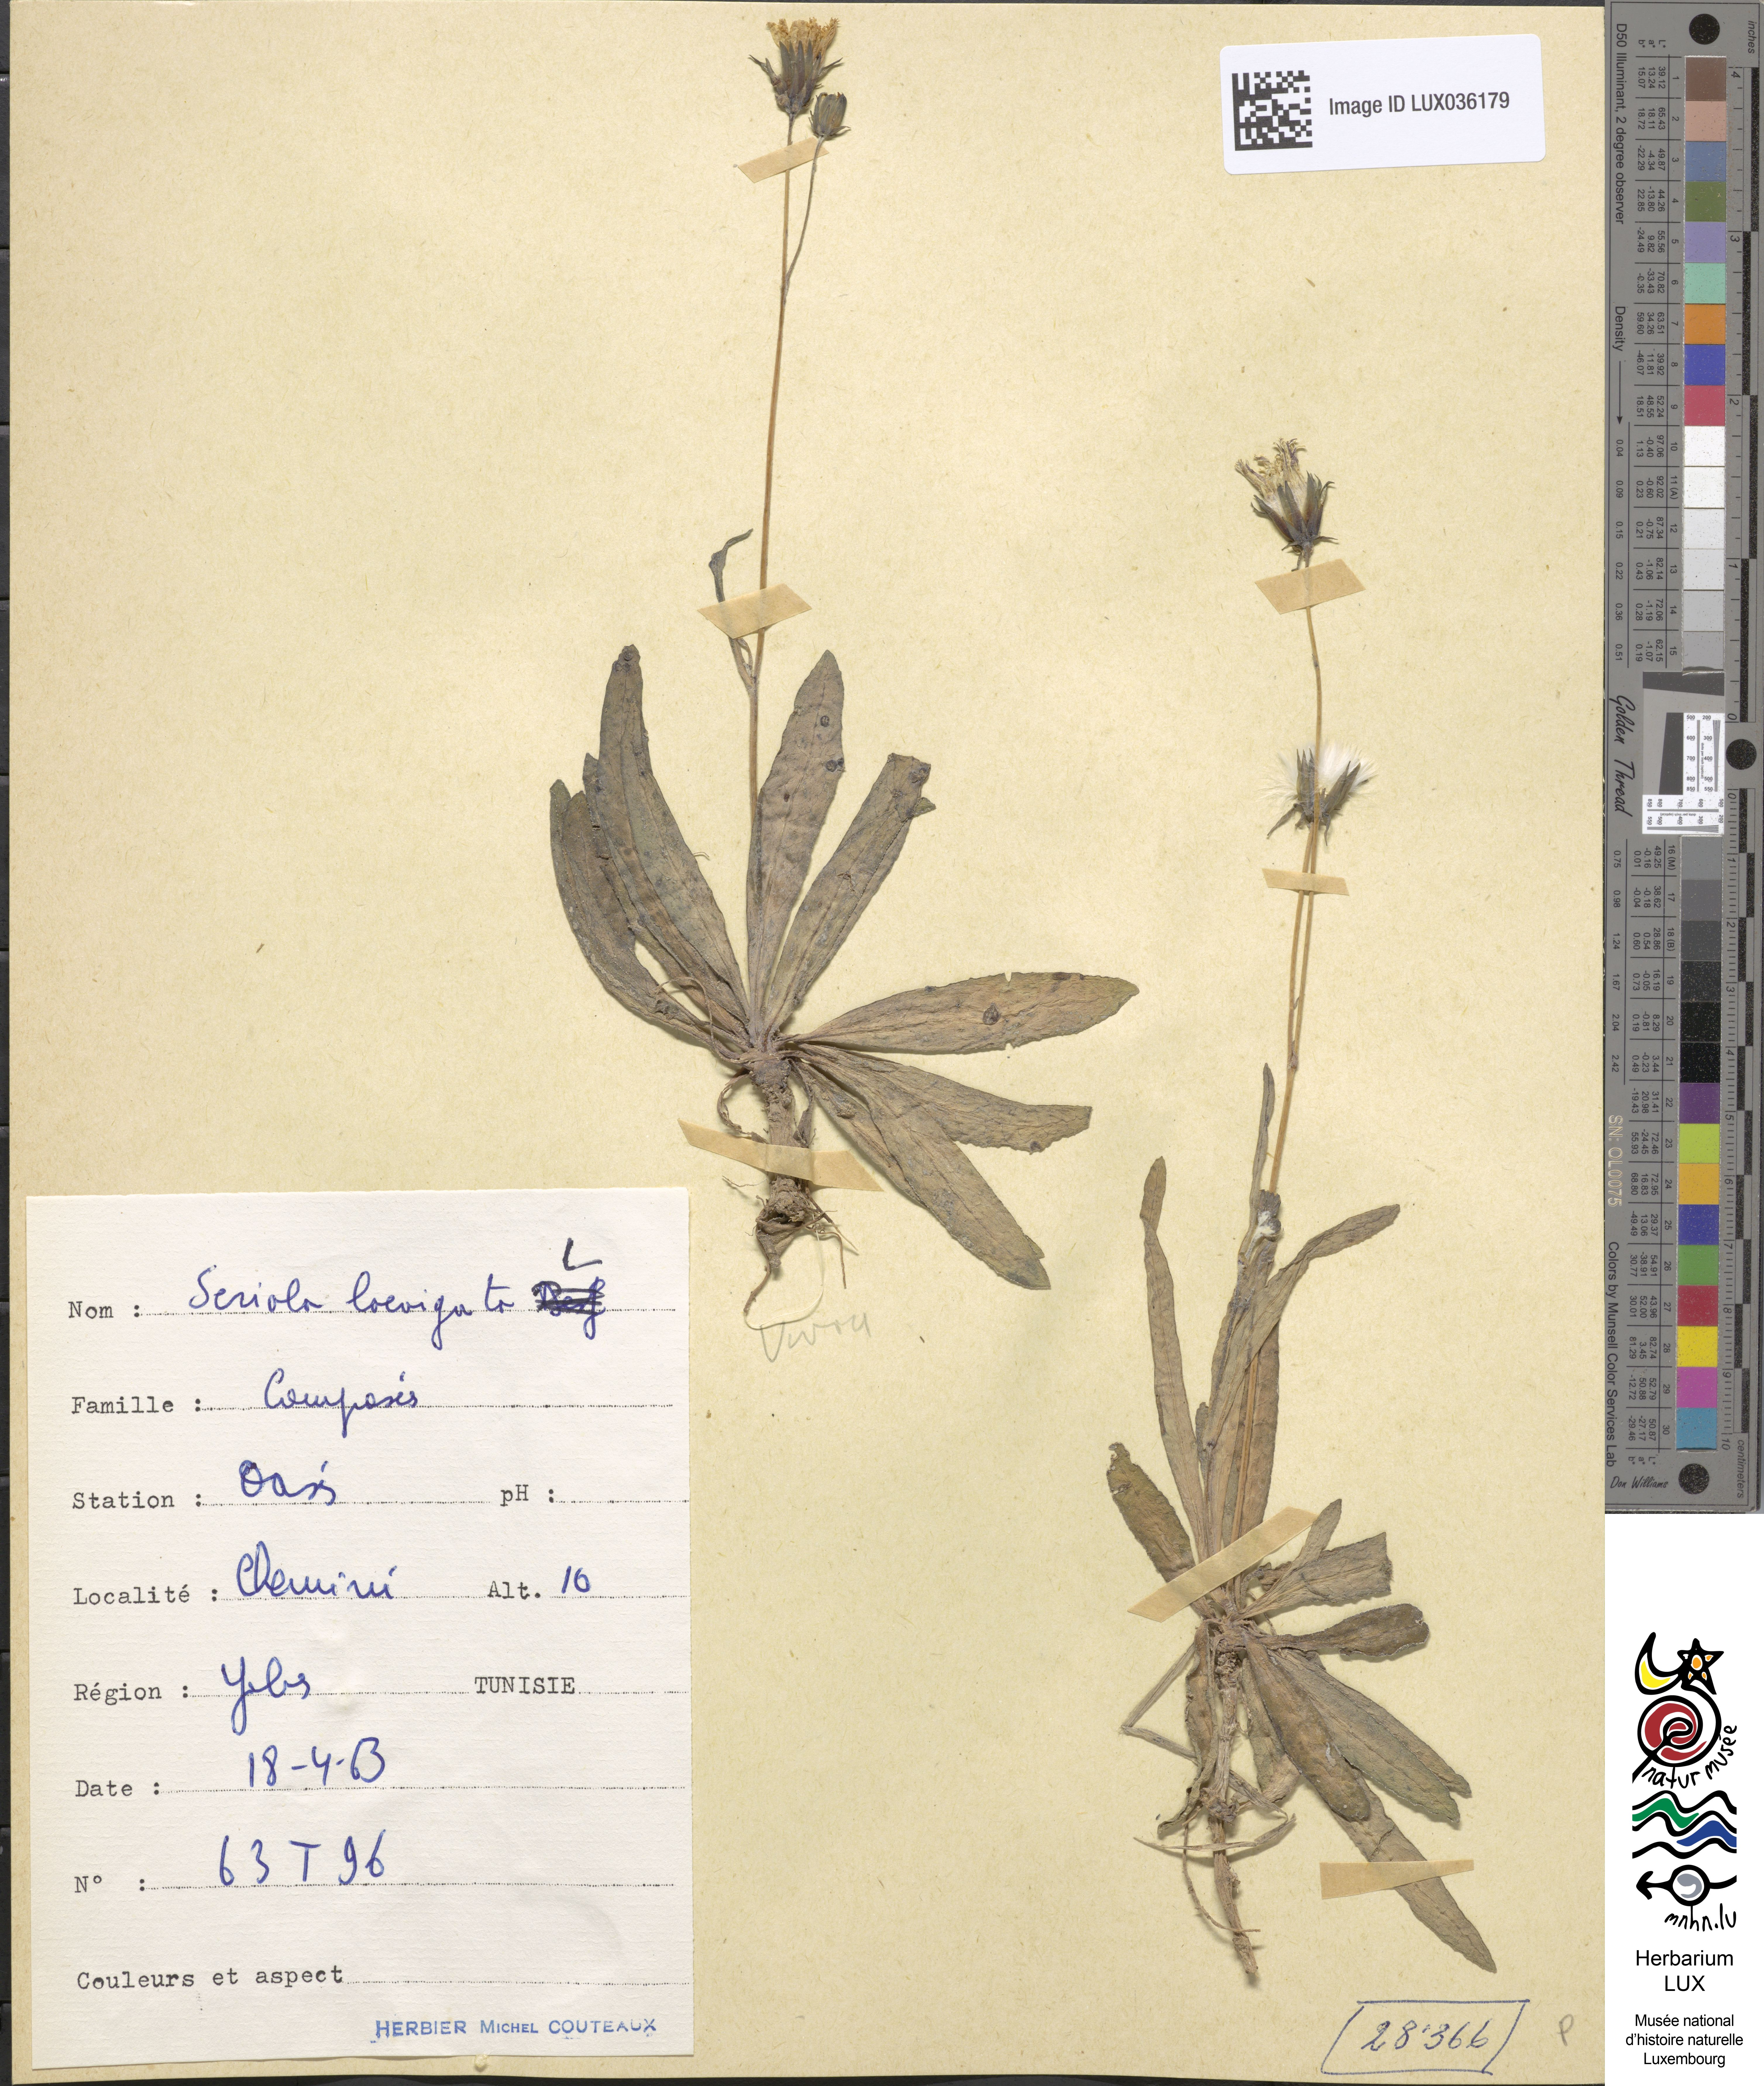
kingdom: Plantae
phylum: Tracheophyta
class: Magnoliopsida
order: Asterales
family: Asteraceae
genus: Hypochoeris
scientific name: Hypochoeris
